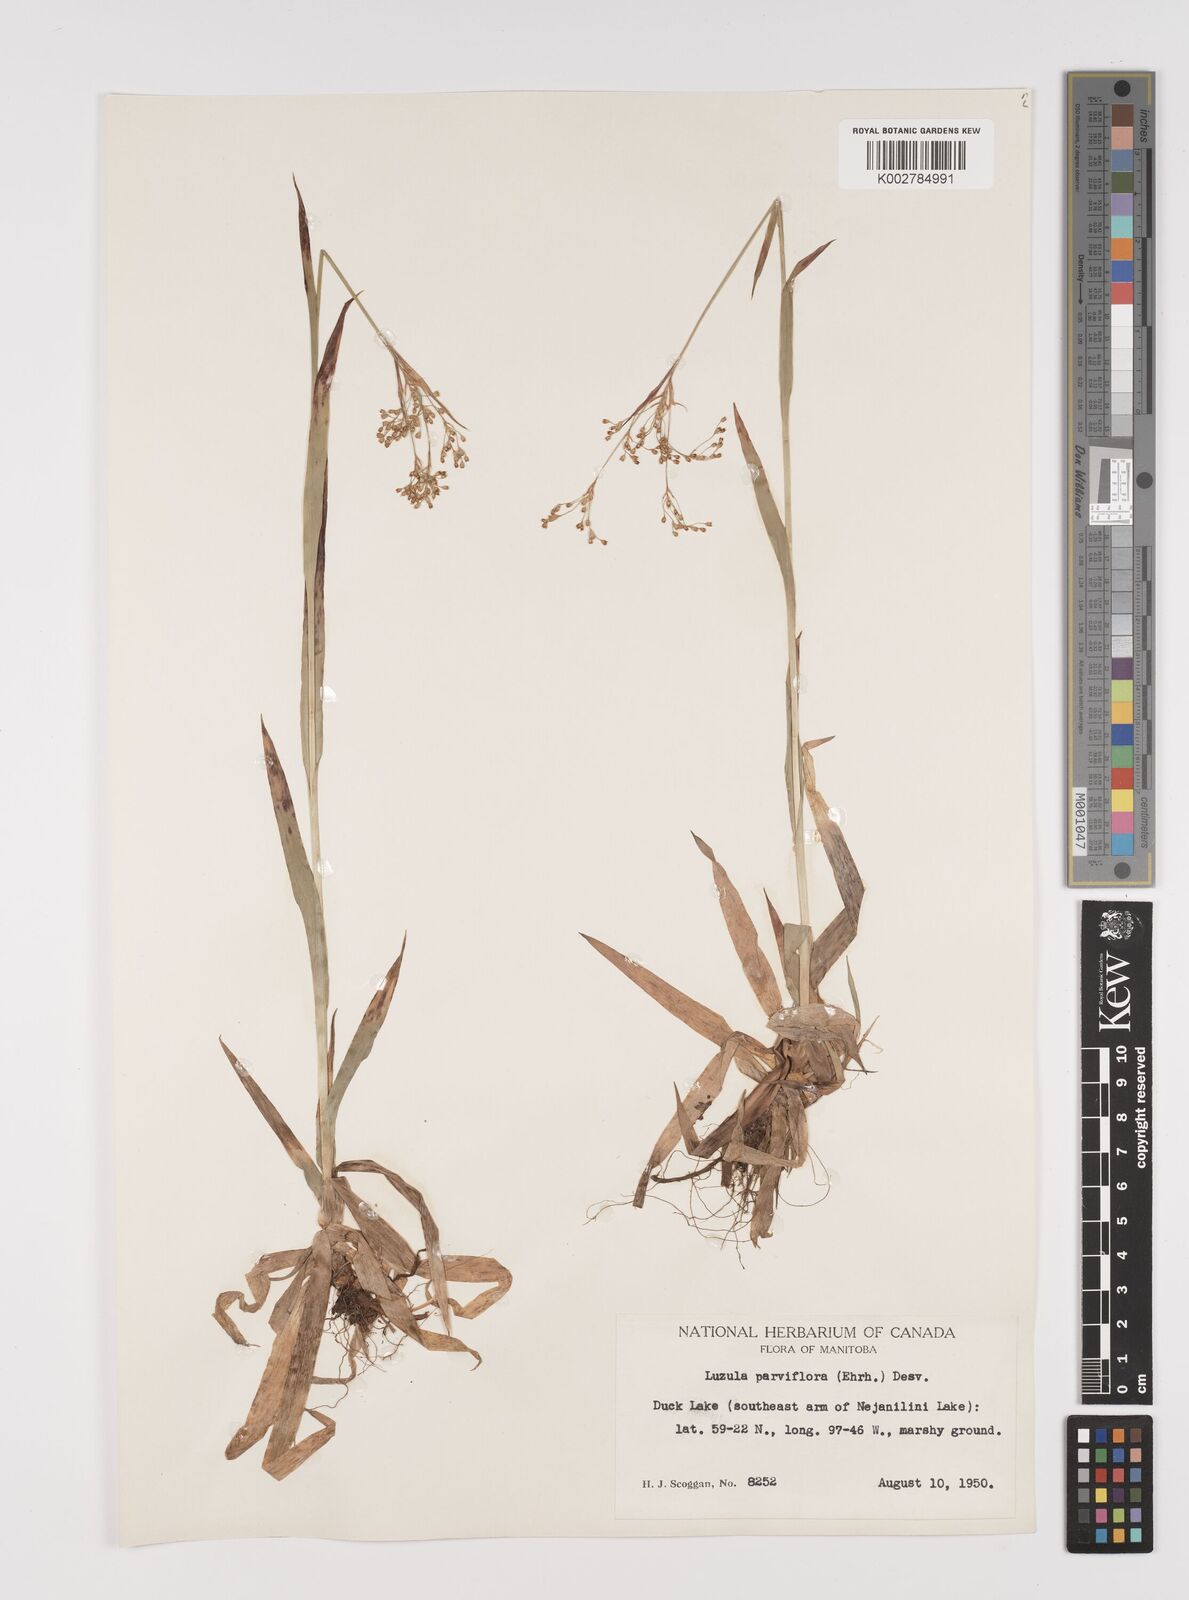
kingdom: Plantae
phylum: Tracheophyta
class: Liliopsida
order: Poales
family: Juncaceae
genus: Luzula
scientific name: Luzula parviflora
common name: Millet woodrush
